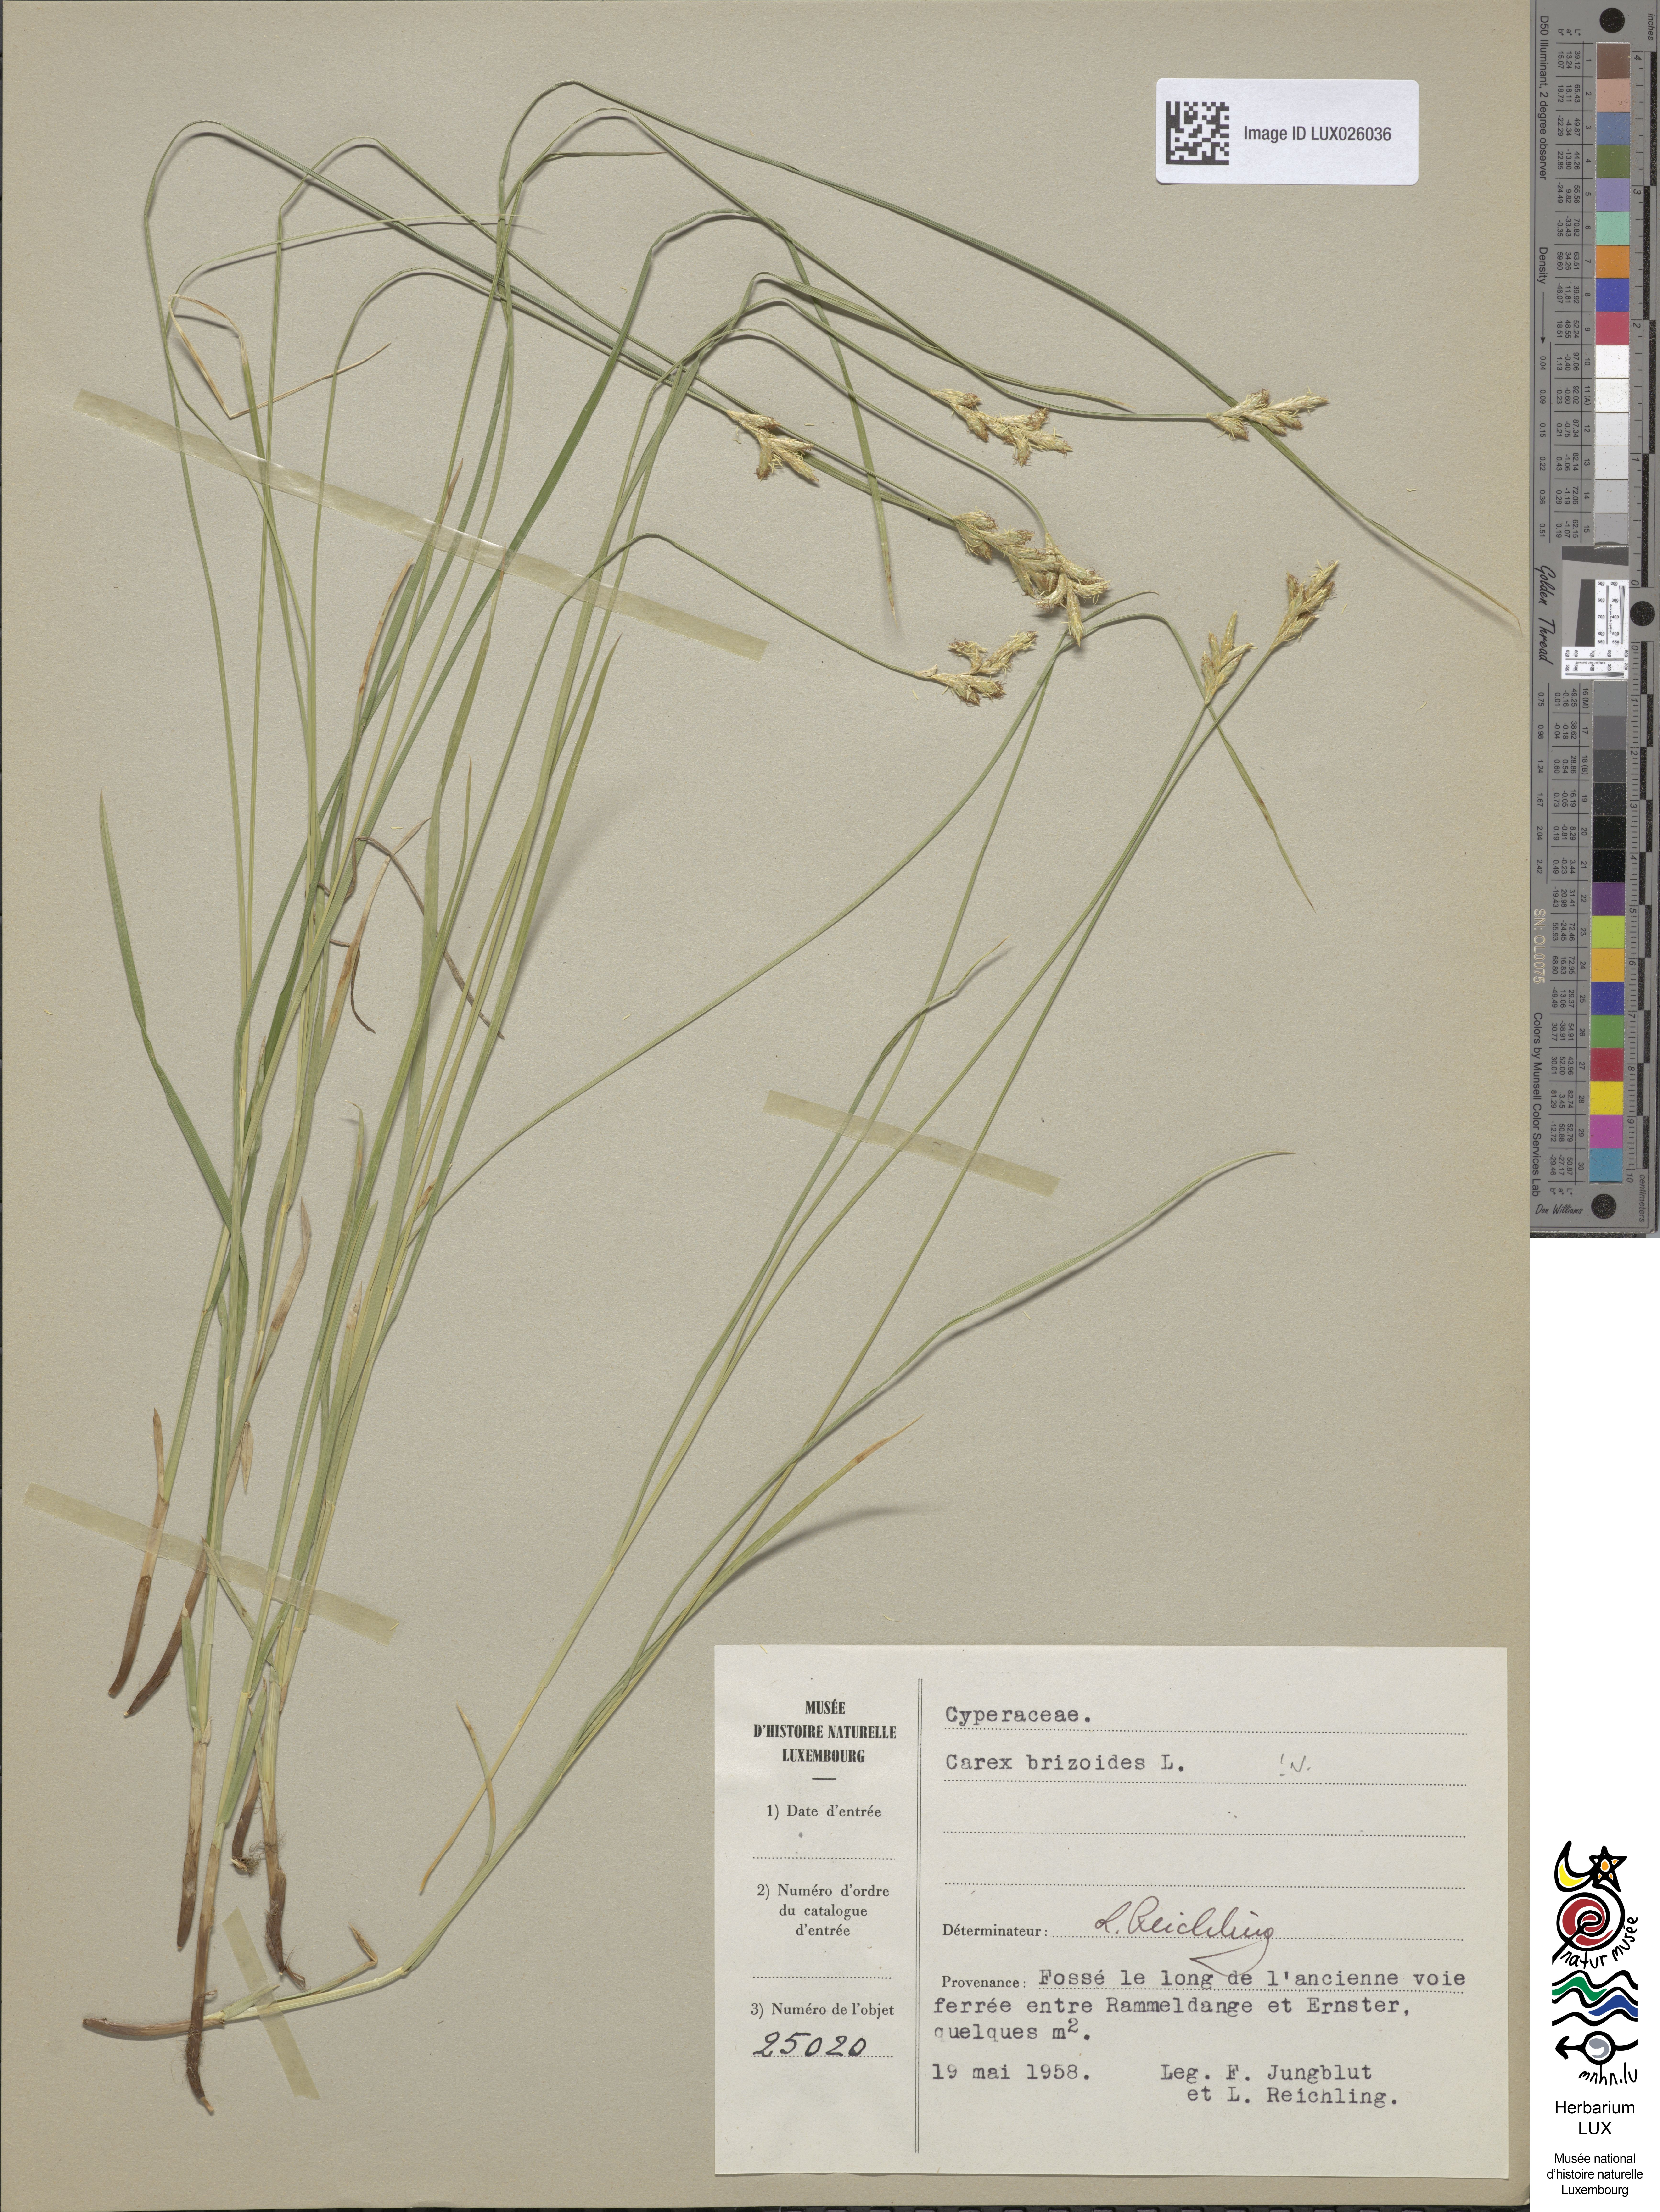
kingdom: Plantae
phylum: Tracheophyta
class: Liliopsida
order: Poales
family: Cyperaceae
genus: Carex
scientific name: Carex brizoides
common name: Quaking-grass sedge
